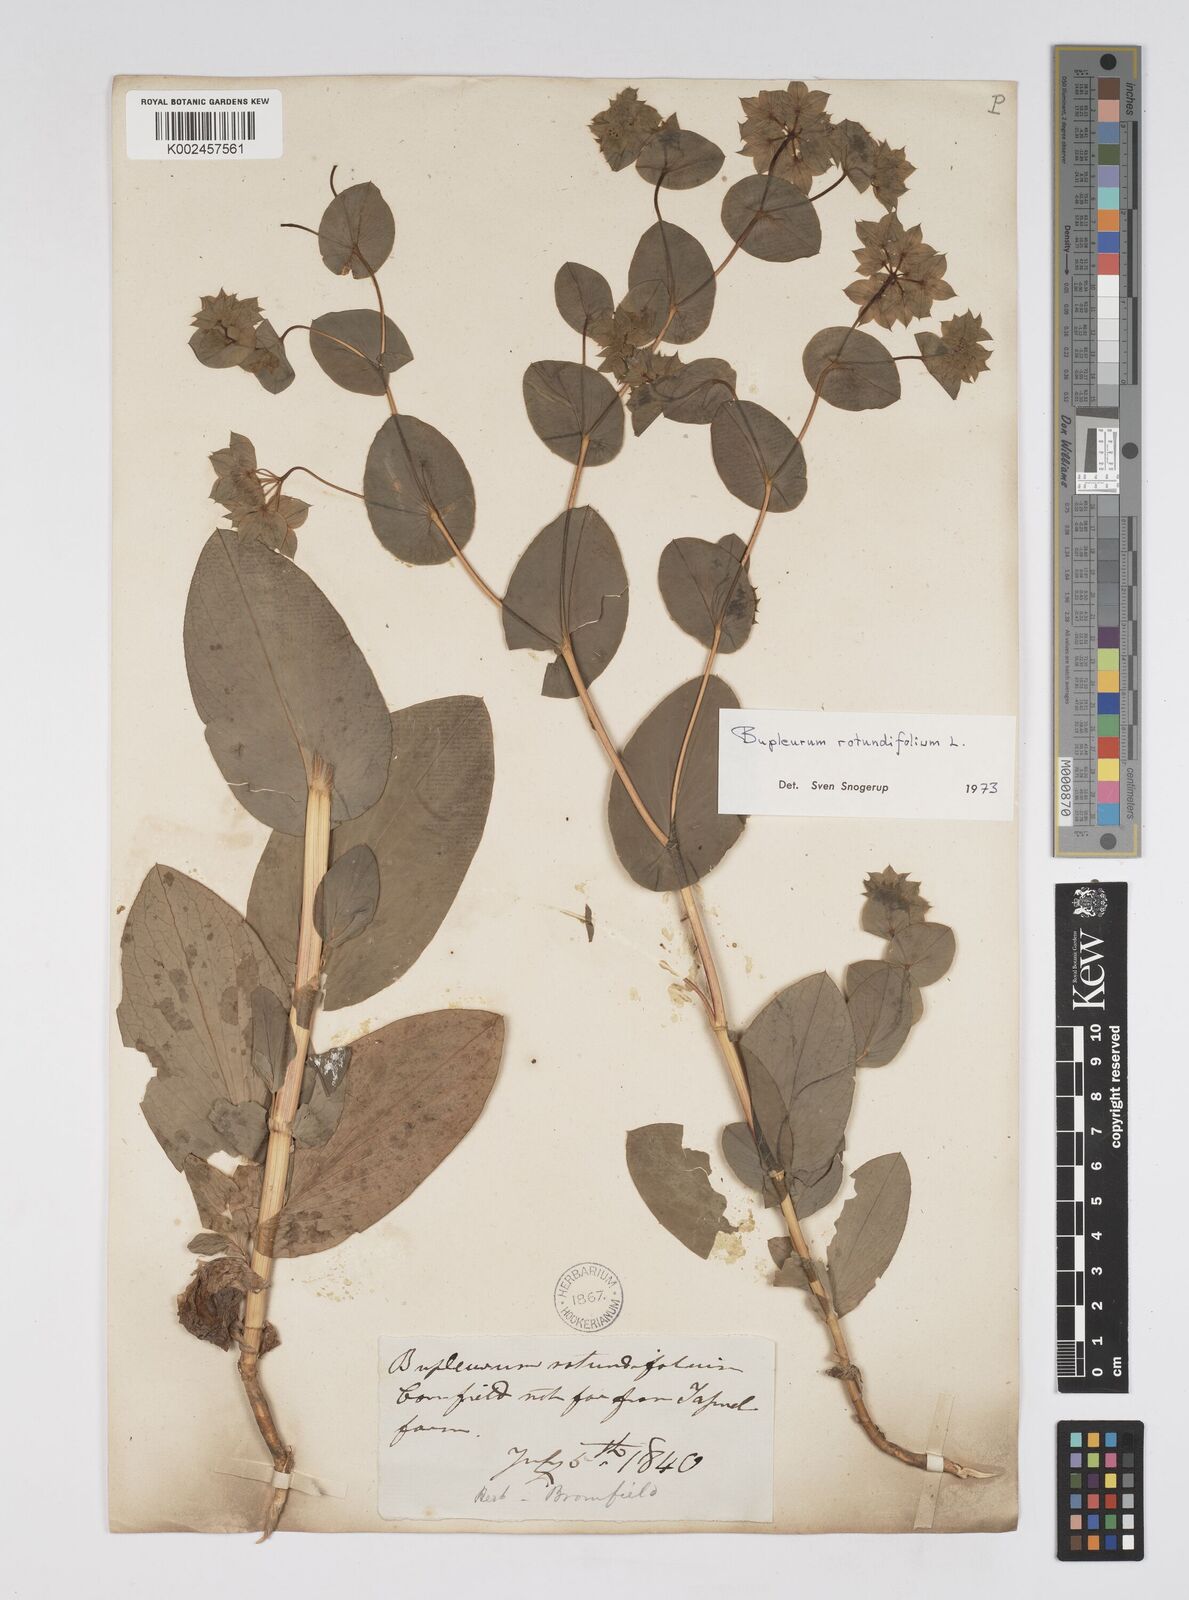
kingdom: Plantae
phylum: Tracheophyta
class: Magnoliopsida
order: Apiales
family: Apiaceae
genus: Bupleurum
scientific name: Bupleurum rotundifolium
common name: Thorow-wax
